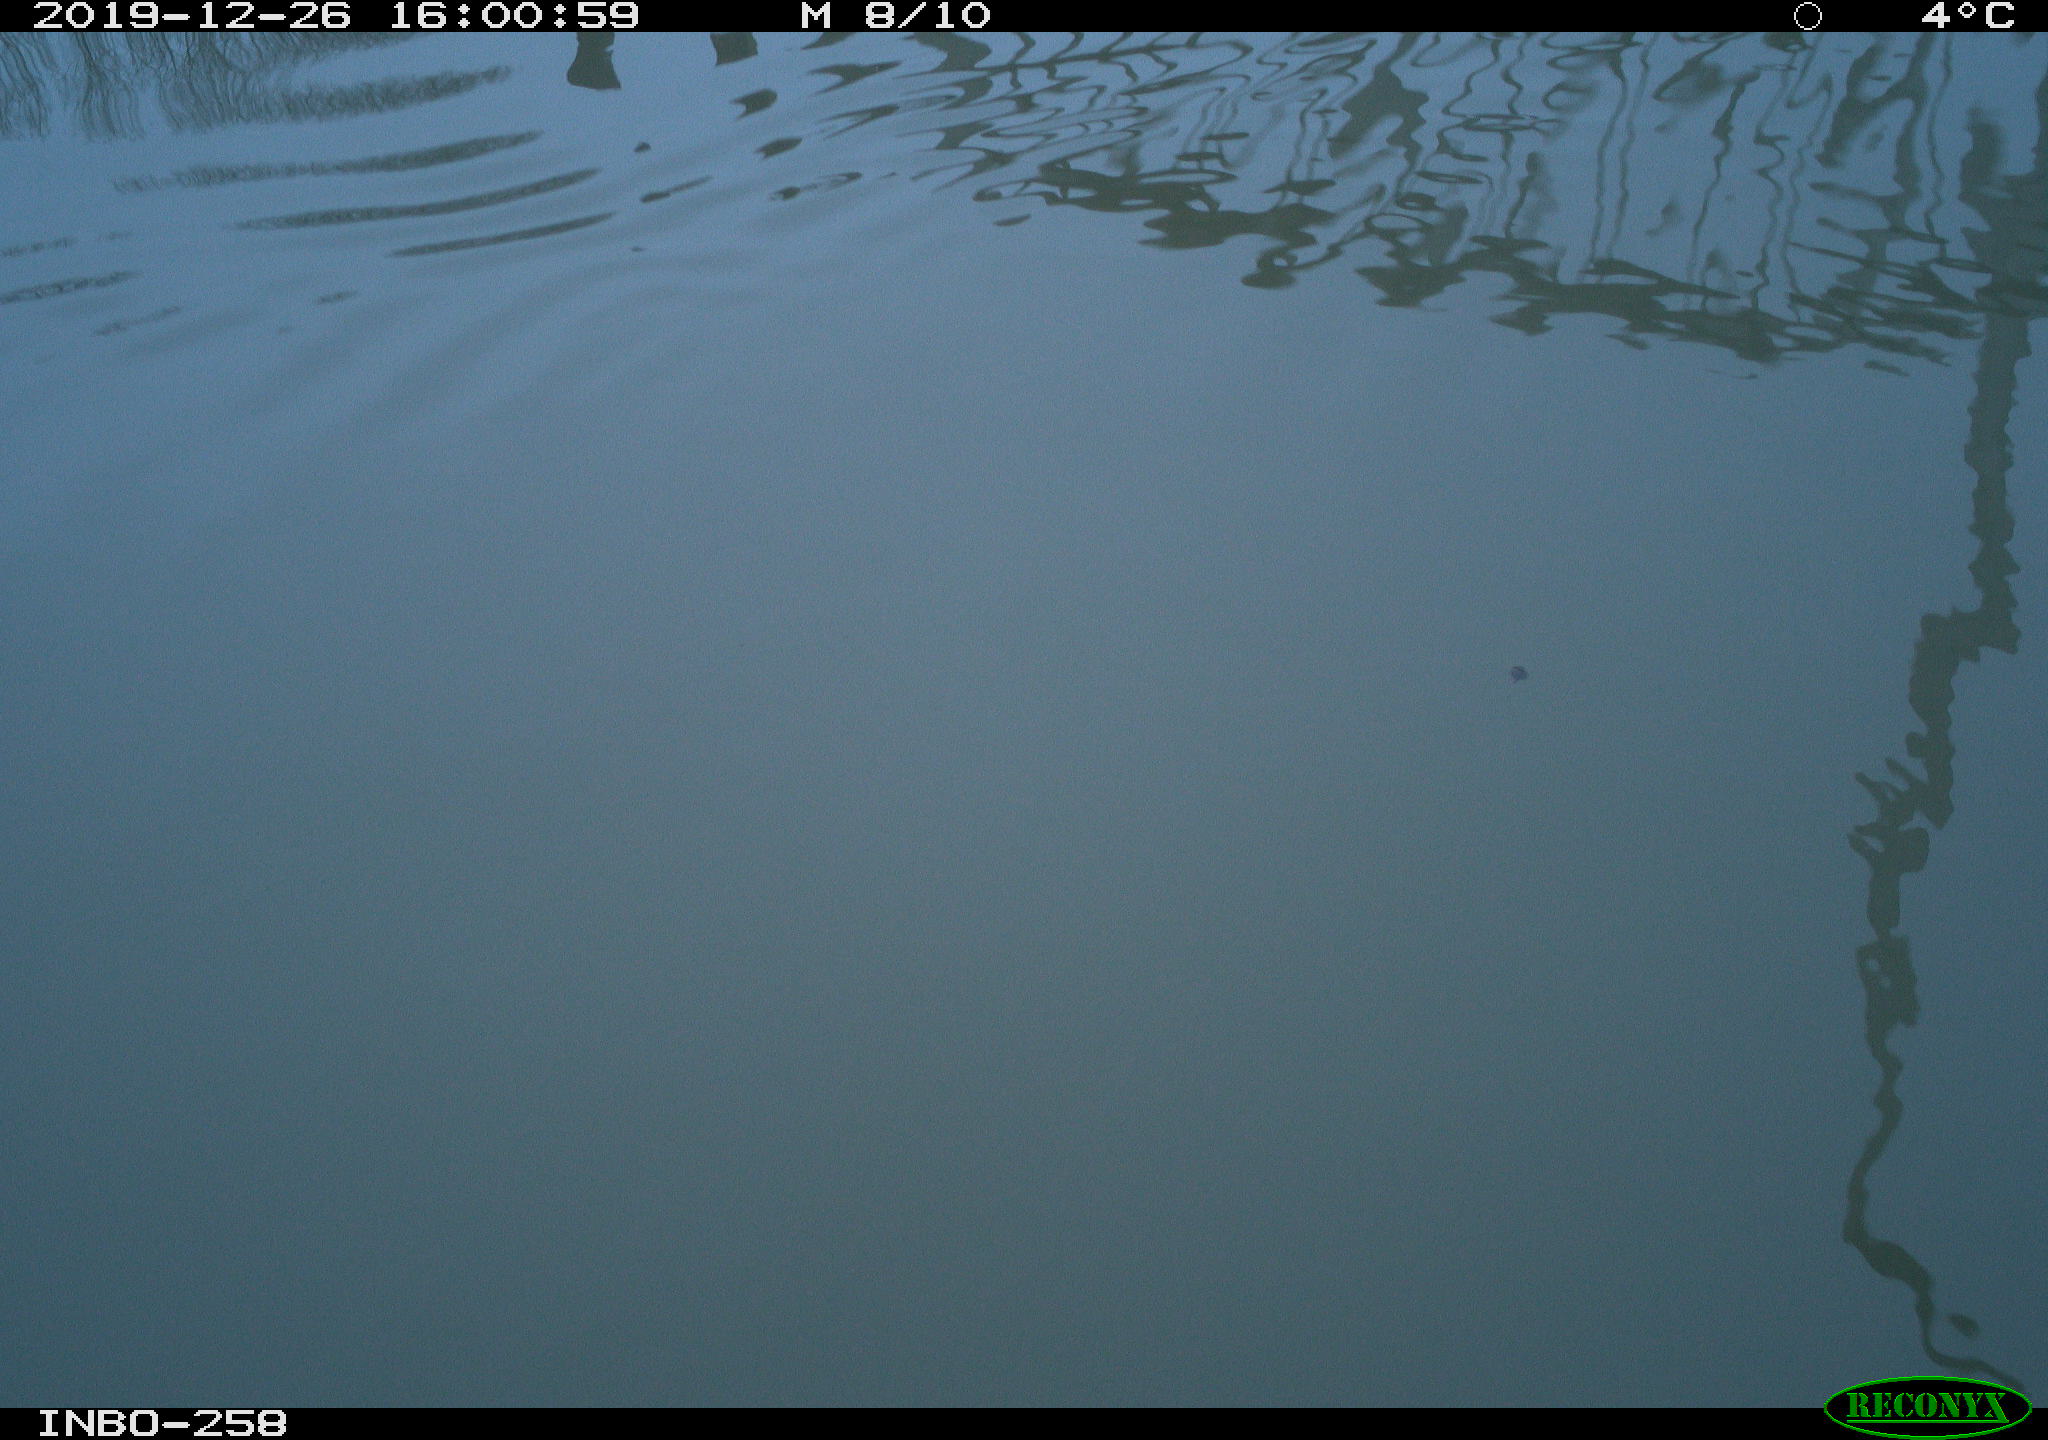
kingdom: Animalia
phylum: Chordata
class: Aves
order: Gruiformes
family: Rallidae
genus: Gallinula
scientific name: Gallinula chloropus
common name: Common moorhen
